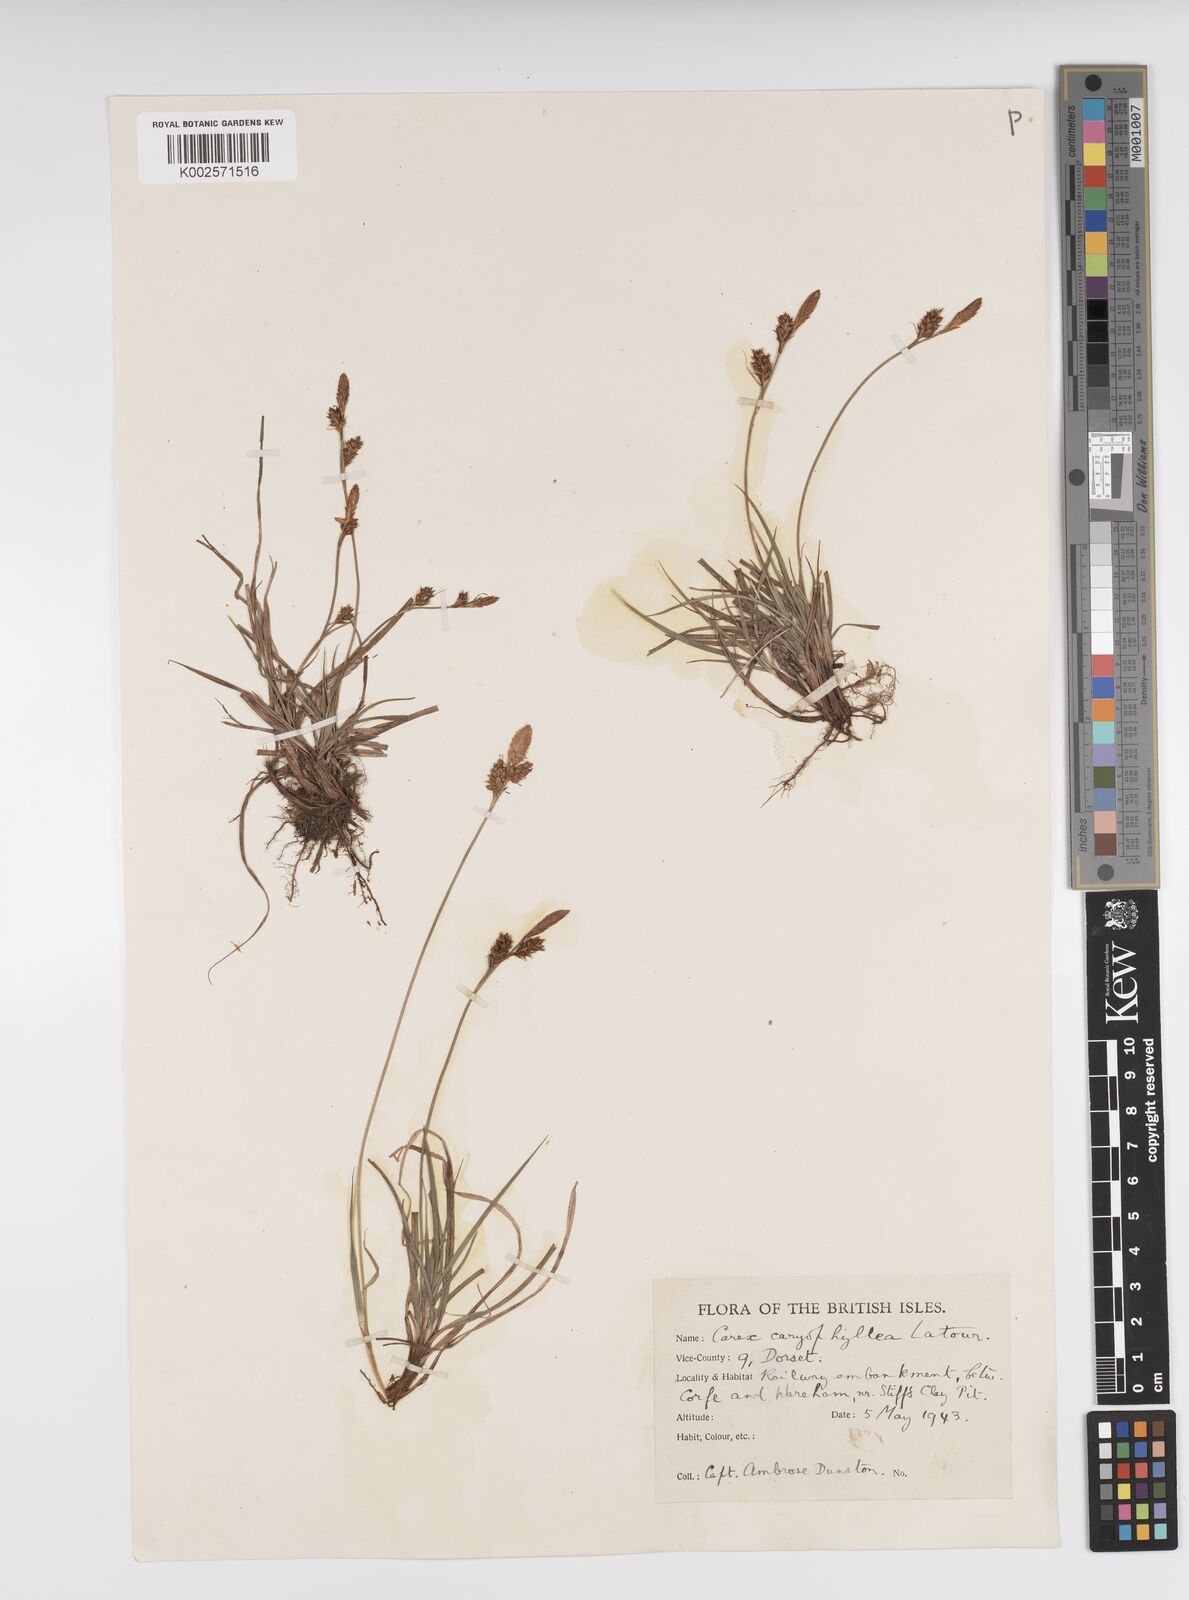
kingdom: Plantae
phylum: Tracheophyta
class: Liliopsida
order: Poales
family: Cyperaceae
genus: Carex
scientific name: Carex caryophyllea
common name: Spring sedge
